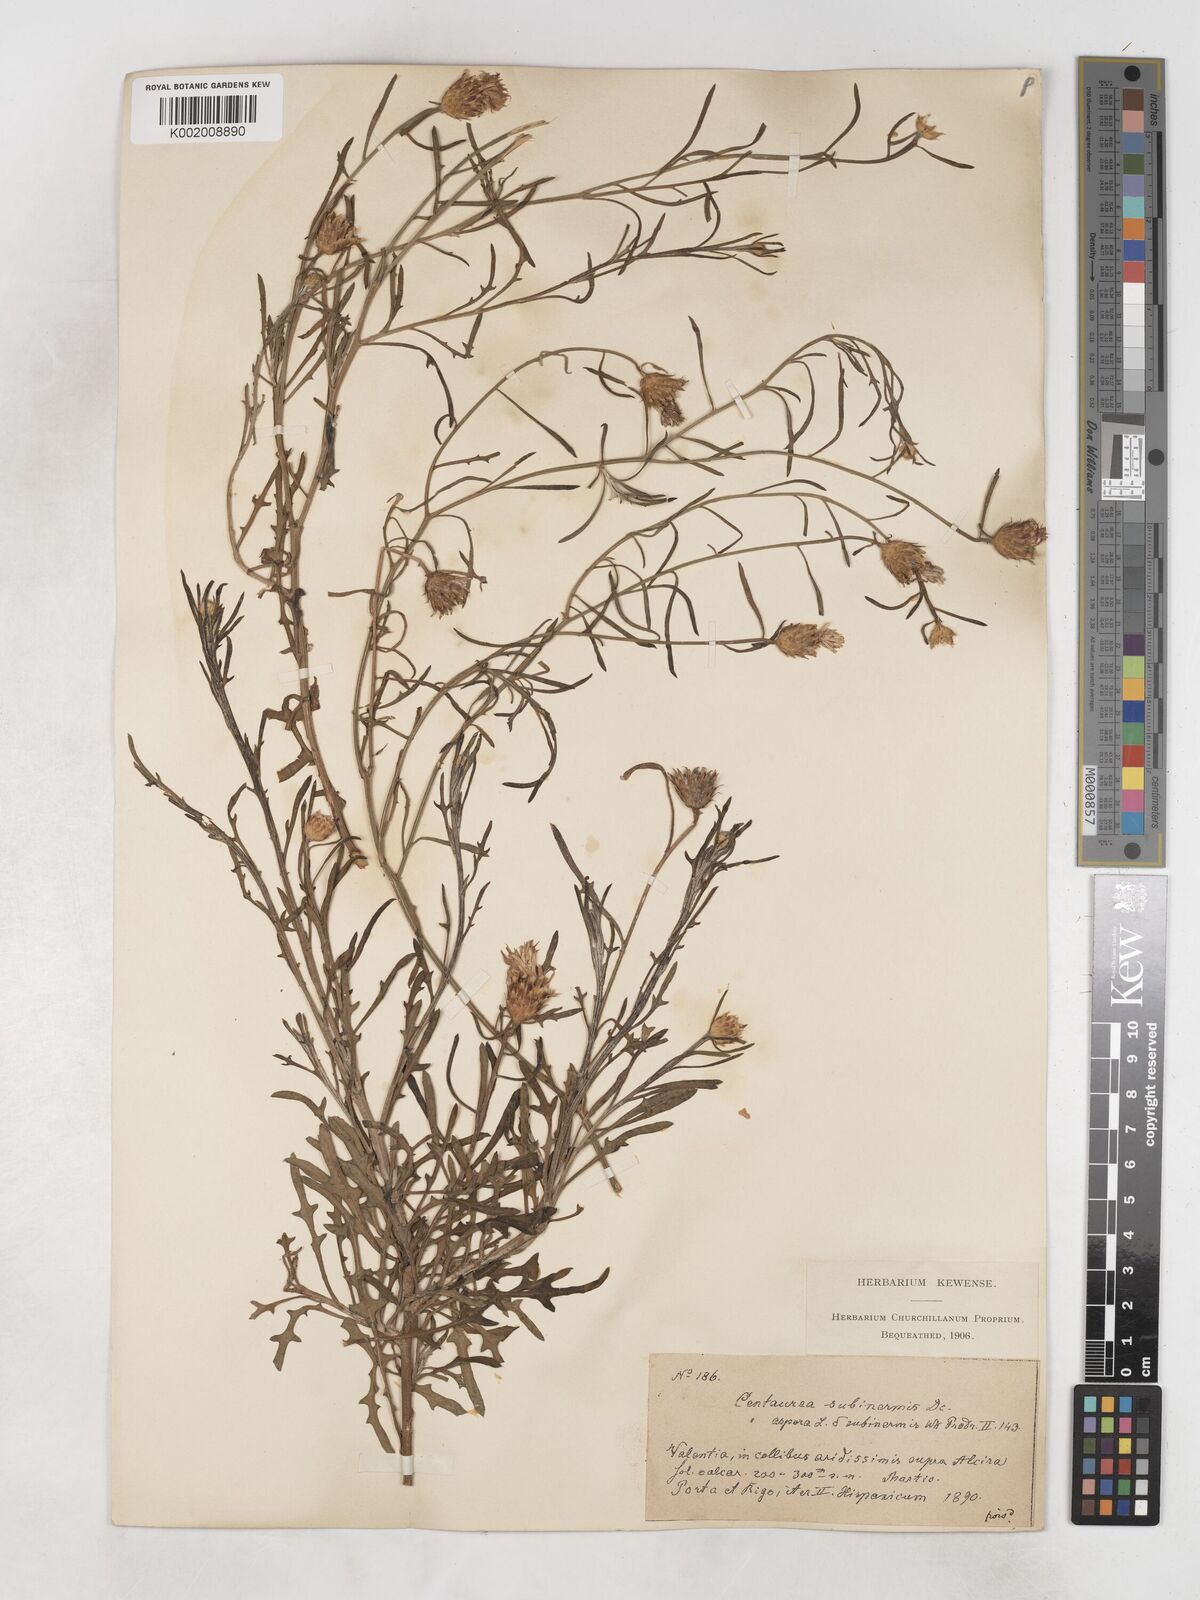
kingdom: Plantae
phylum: Tracheophyta
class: Magnoliopsida
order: Asterales
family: Asteraceae
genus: Centaurea
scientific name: Centaurea aspera
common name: Rough star-thistle
